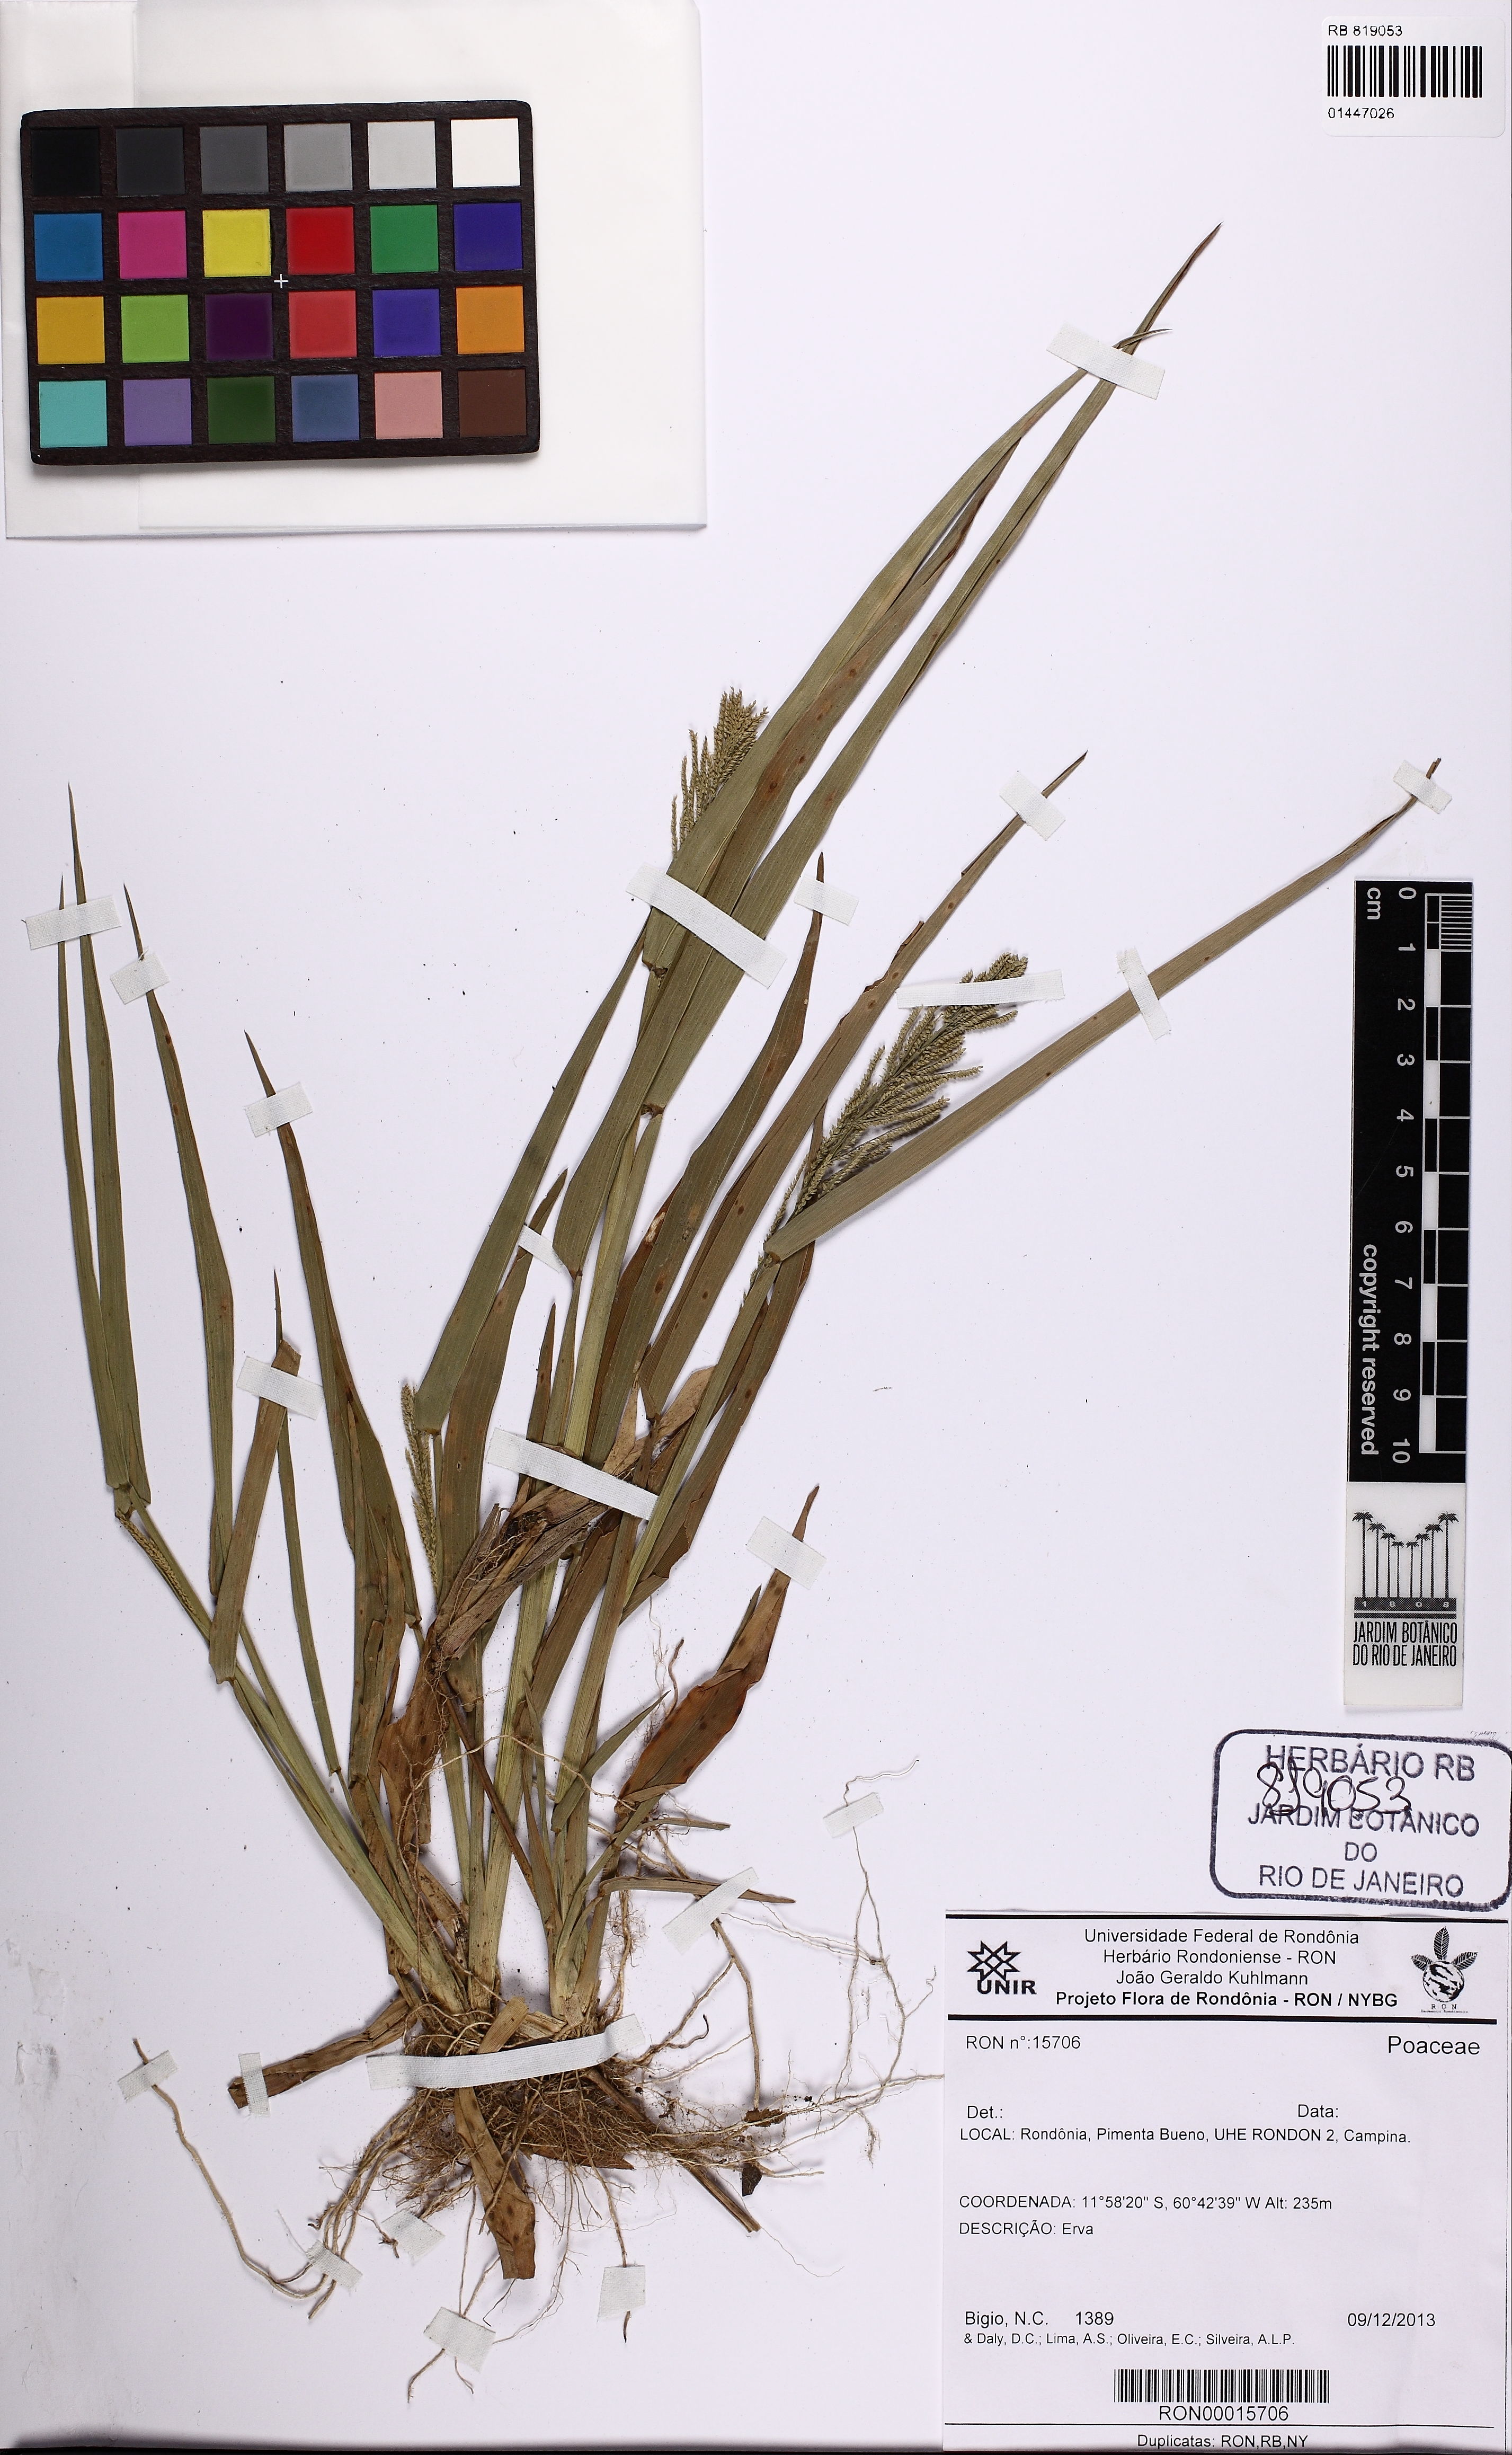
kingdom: Plantae
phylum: Tracheophyta
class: Liliopsida
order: Poales
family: Poaceae
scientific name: Poaceae
